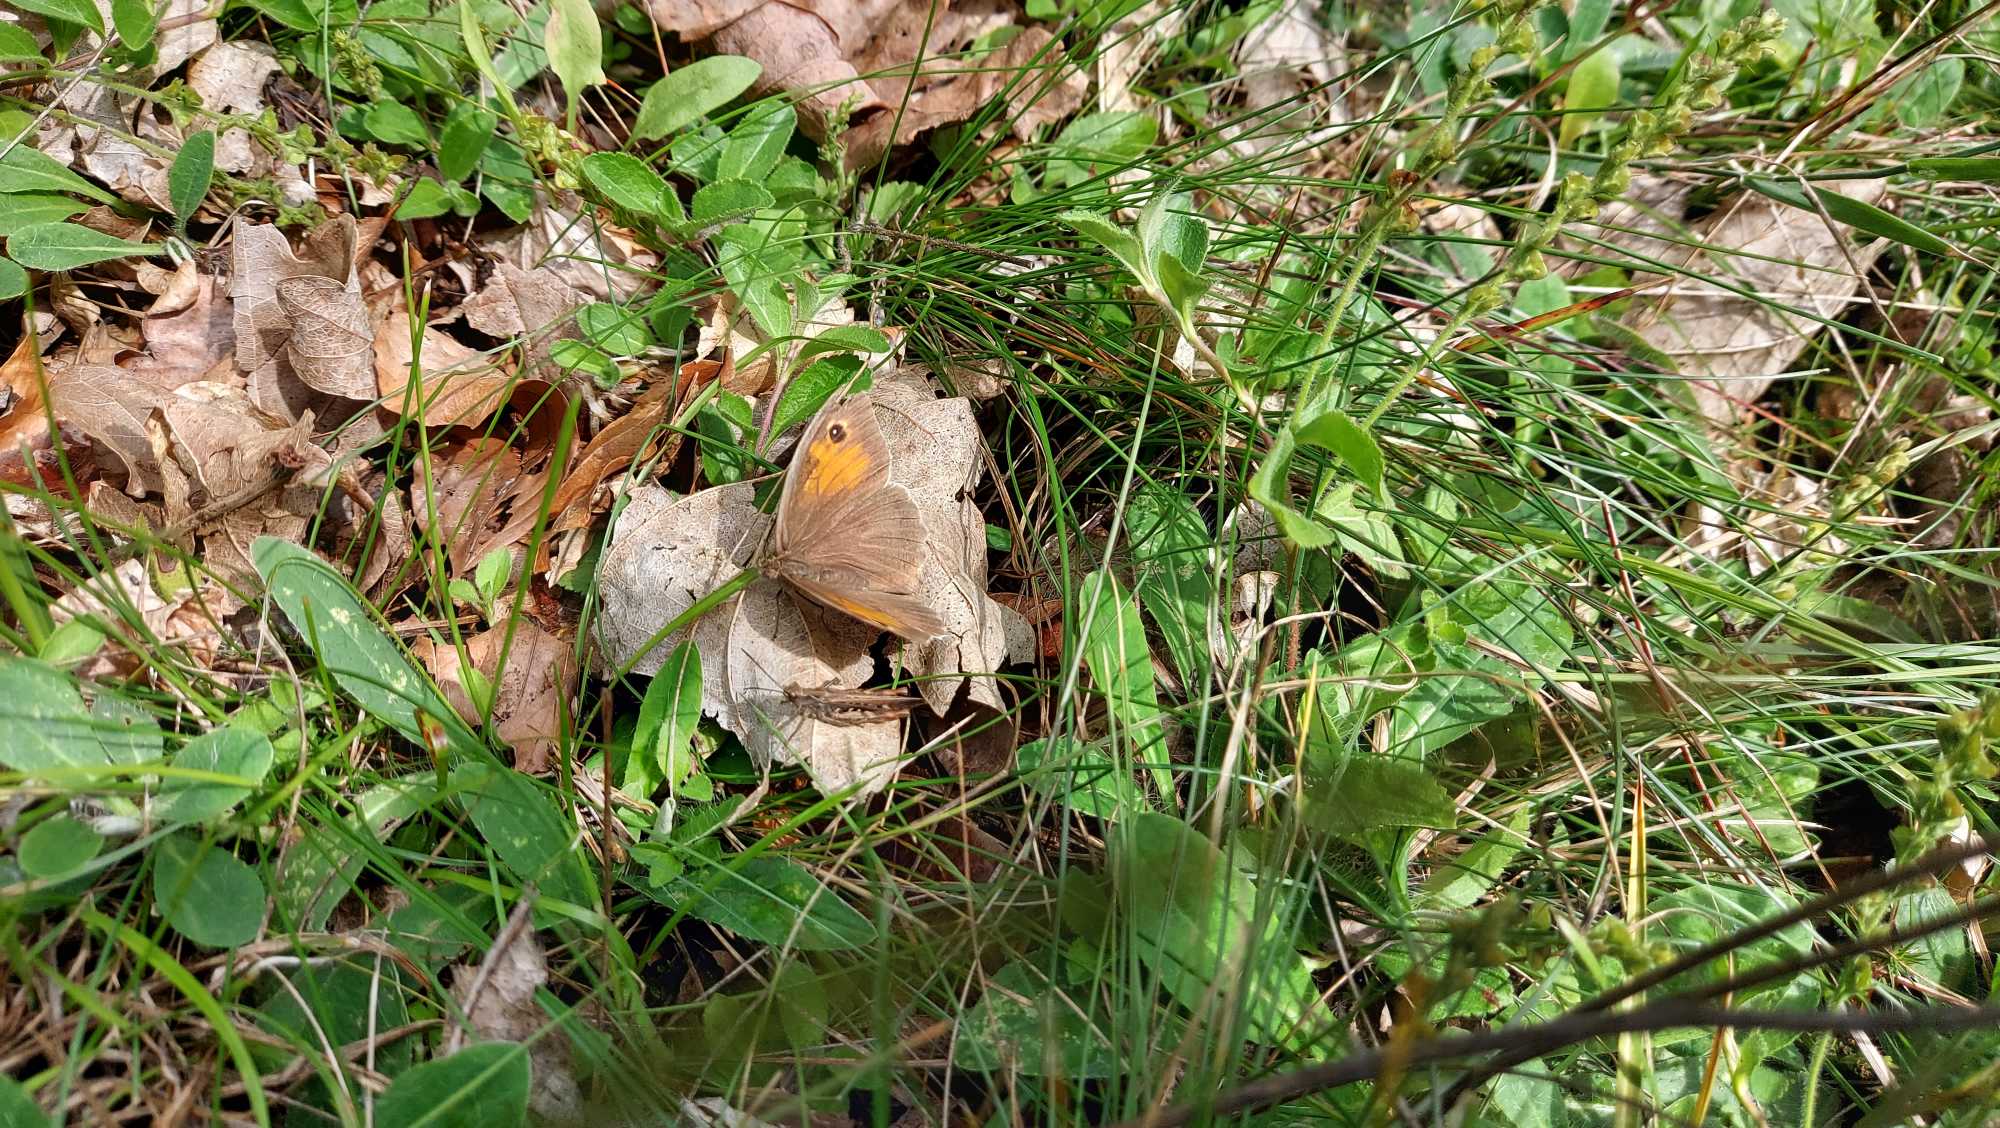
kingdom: Animalia
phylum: Arthropoda
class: Insecta
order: Lepidoptera
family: Nymphalidae
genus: Maniola
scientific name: Maniola jurtina
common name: Græsrandøje
